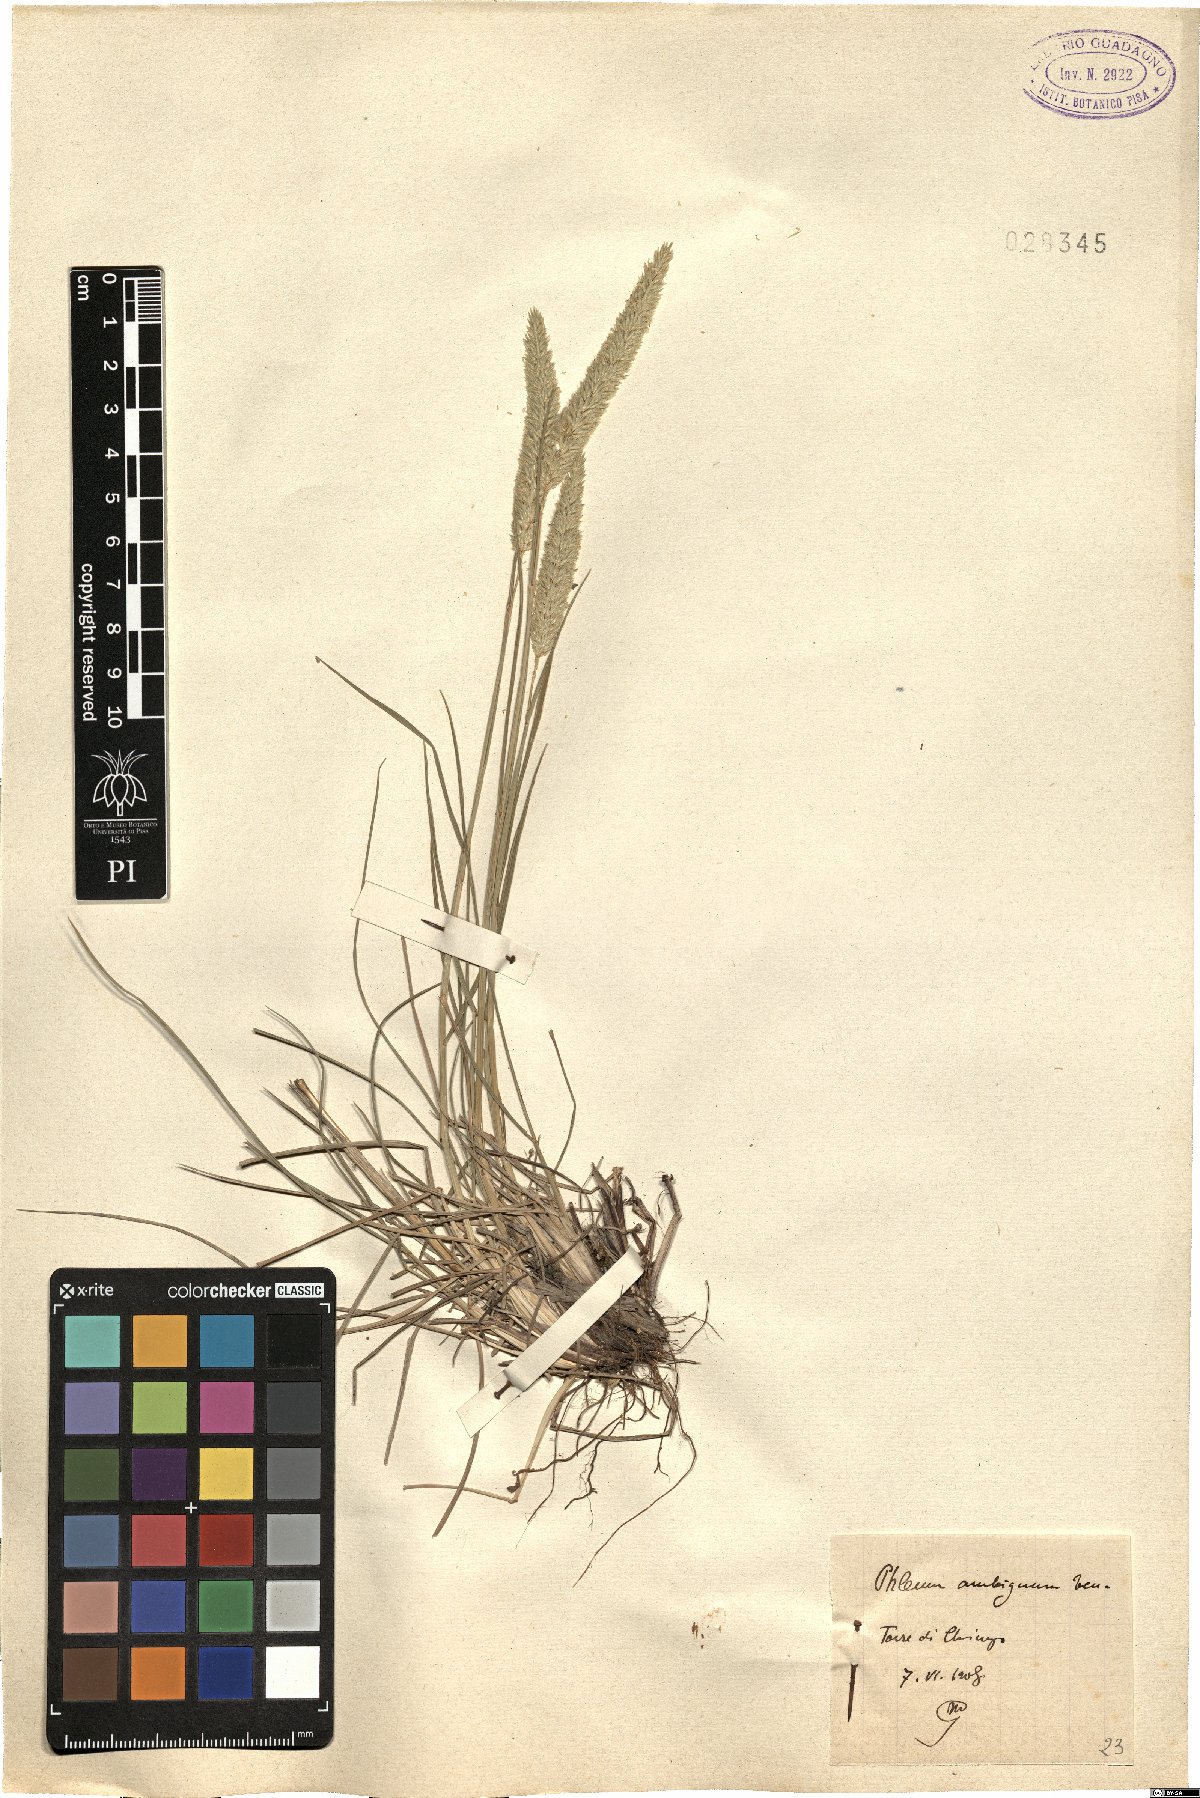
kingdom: Plantae
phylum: Tracheophyta
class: Liliopsida
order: Poales
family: Poaceae
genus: Phleum
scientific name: Phleum hirsutum
